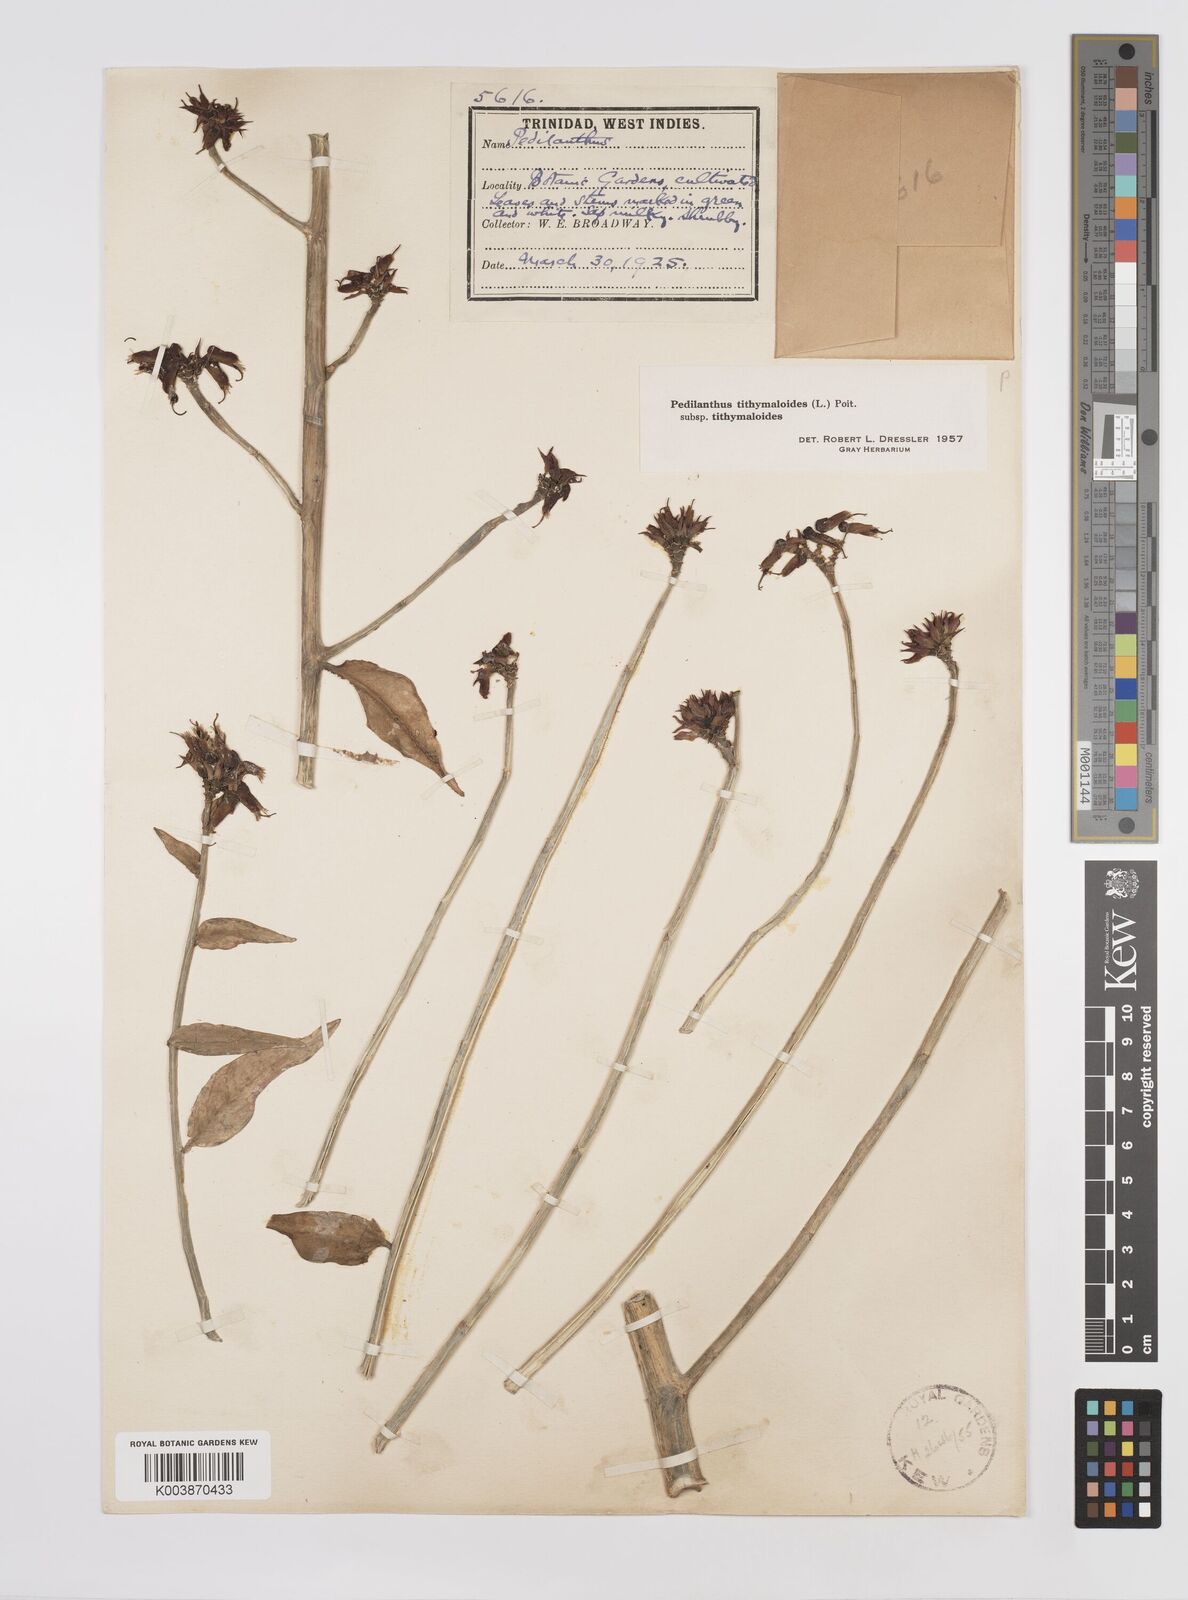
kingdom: Plantae
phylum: Tracheophyta
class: Magnoliopsida
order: Malpighiales
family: Euphorbiaceae
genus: Euphorbia
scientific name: Euphorbia tithymaloides
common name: Slipperplant
